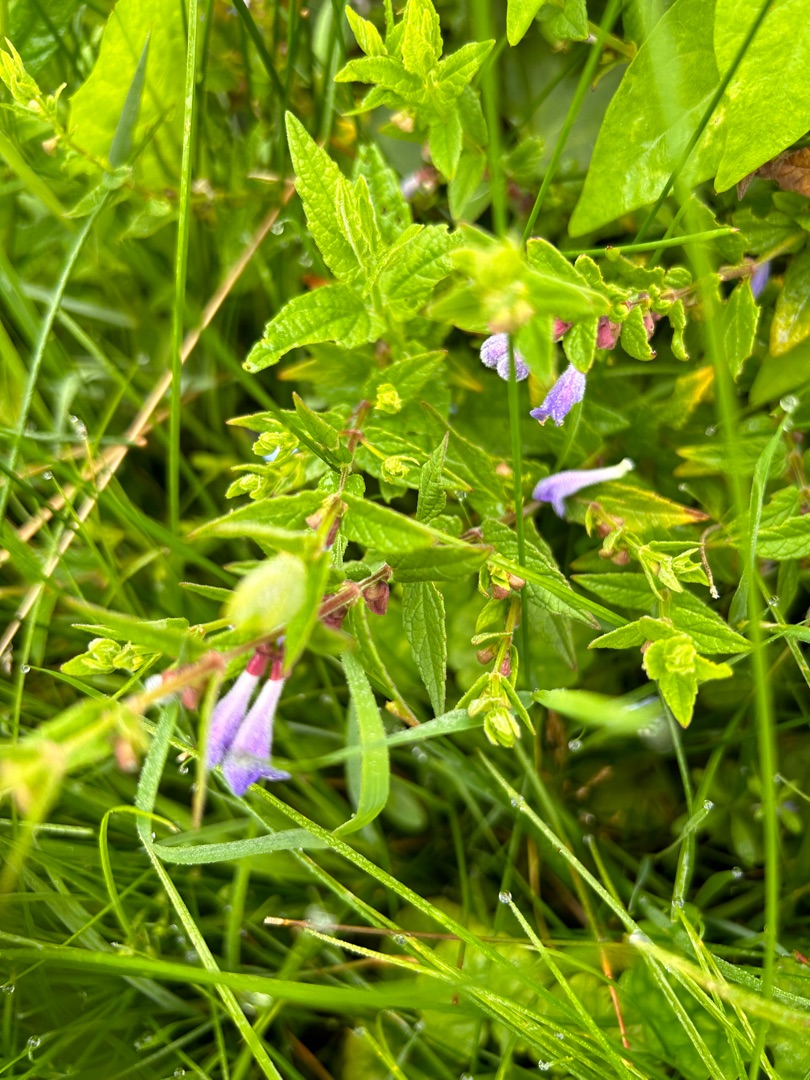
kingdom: Plantae
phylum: Tracheophyta
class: Magnoliopsida
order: Lamiales
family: Lamiaceae
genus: Scutellaria
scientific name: Scutellaria galericulata
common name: Almindelig skjolddrager
